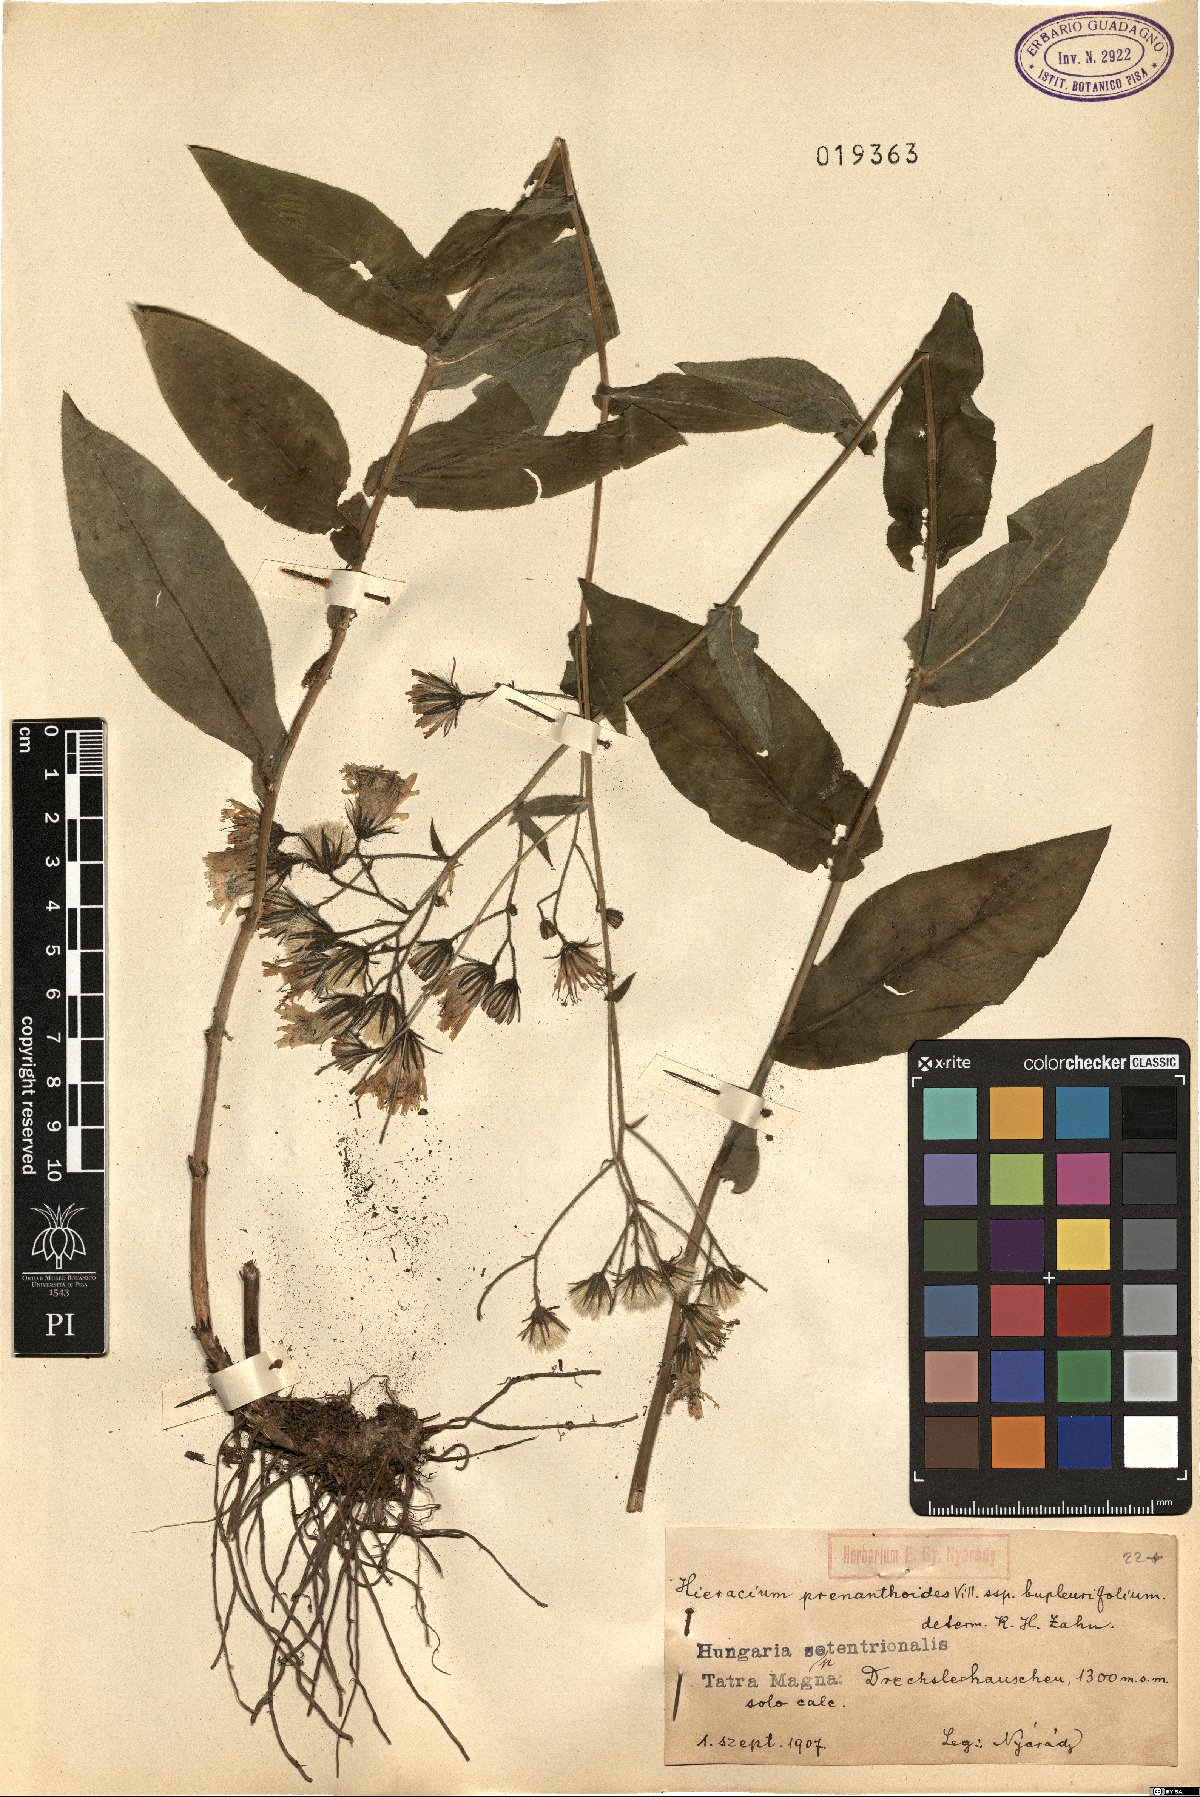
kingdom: Plantae
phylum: Tracheophyta
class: Magnoliopsida
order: Asterales
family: Asteraceae
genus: Hieracium
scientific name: Hieracium prenanthoides
